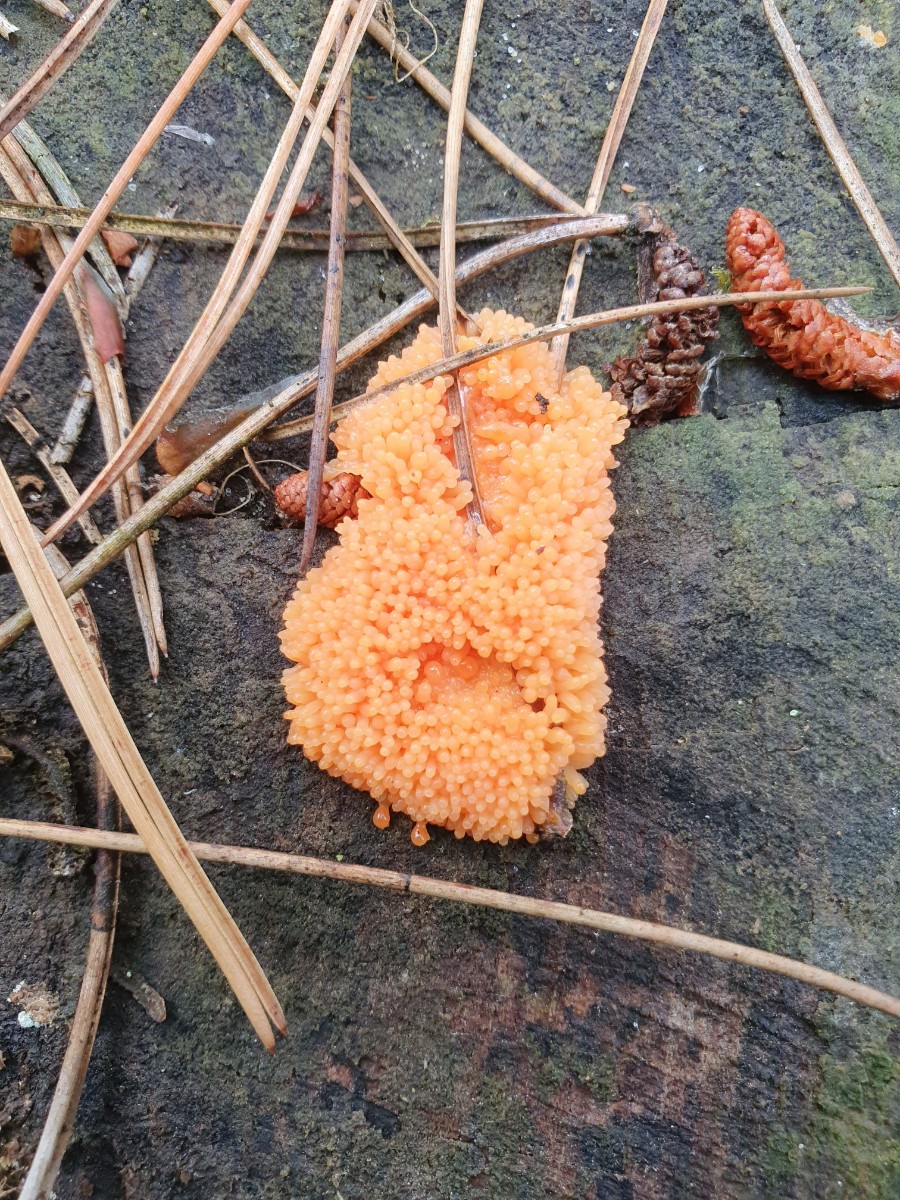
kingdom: Protozoa
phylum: Mycetozoa
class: Myxomycetes
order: Cribrariales
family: Tubiferaceae
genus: Tubifera
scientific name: Tubifera ferruginosa
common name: kanel-støvrør
